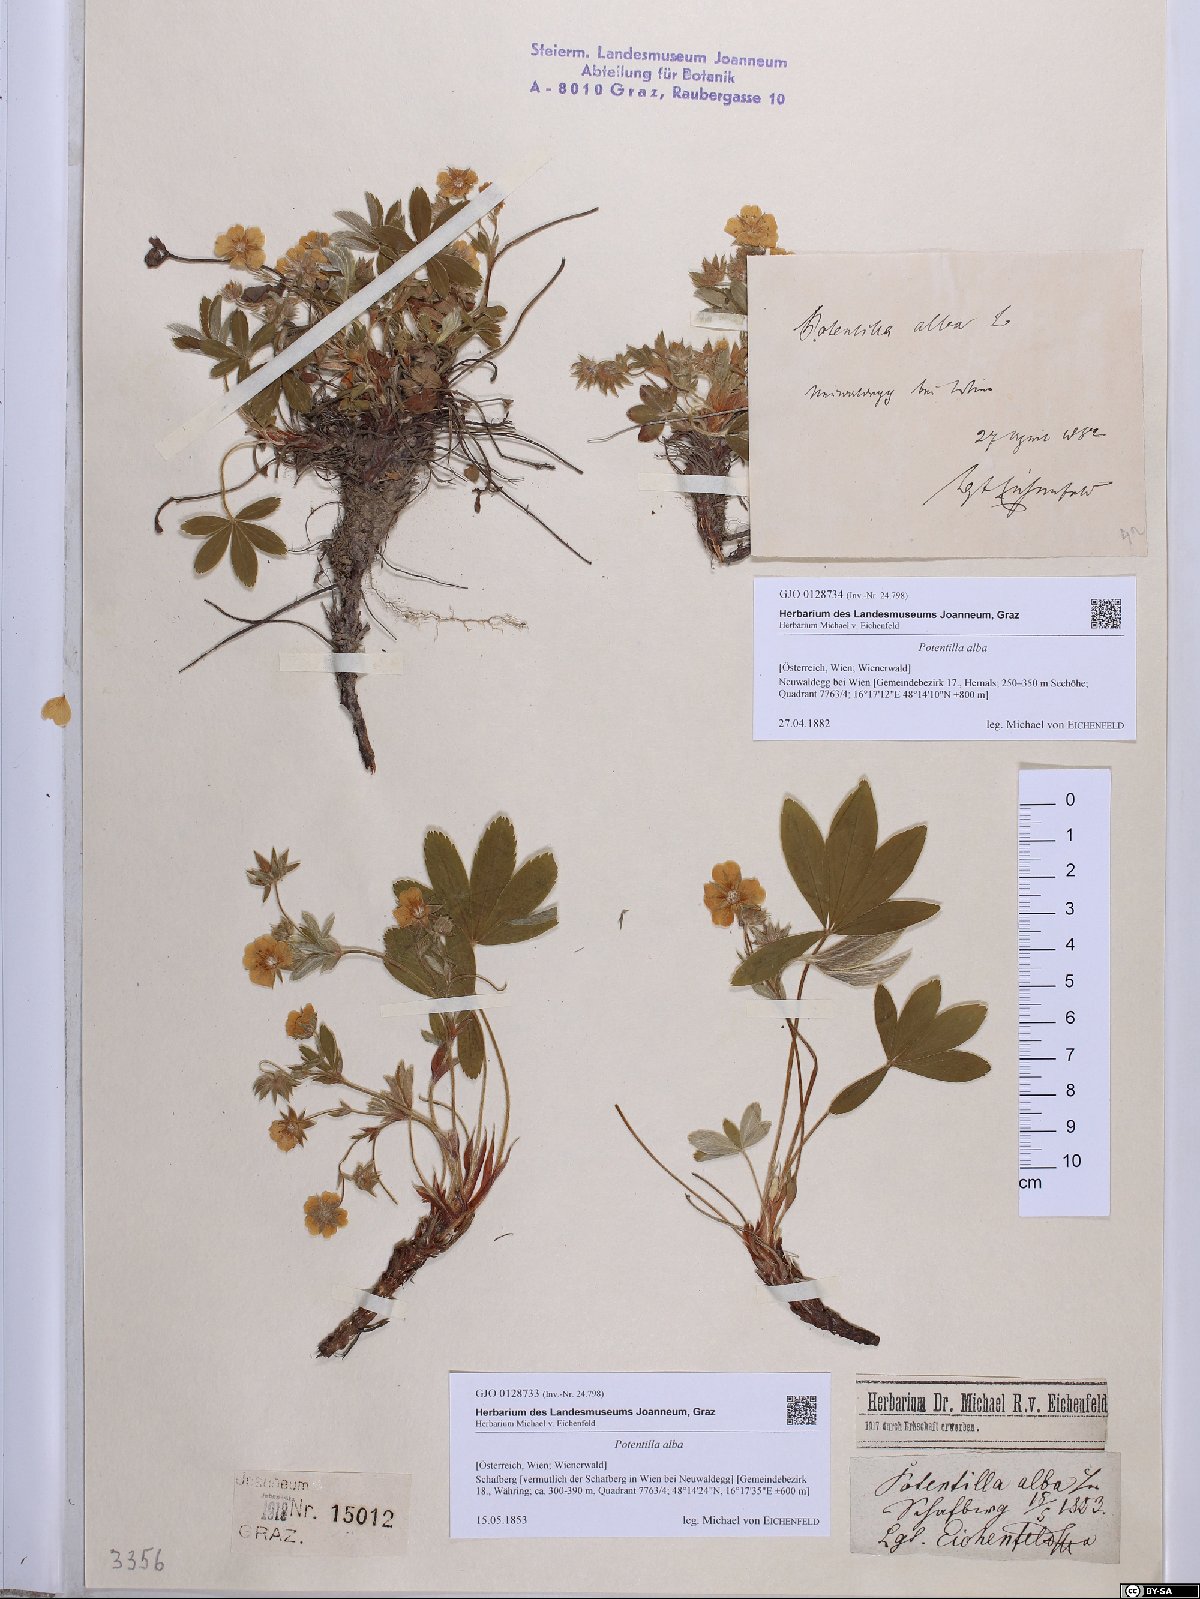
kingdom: Plantae
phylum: Tracheophyta
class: Magnoliopsida
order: Rosales
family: Rosaceae
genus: Potentilla
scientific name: Potentilla alba
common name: White cinquefoil
